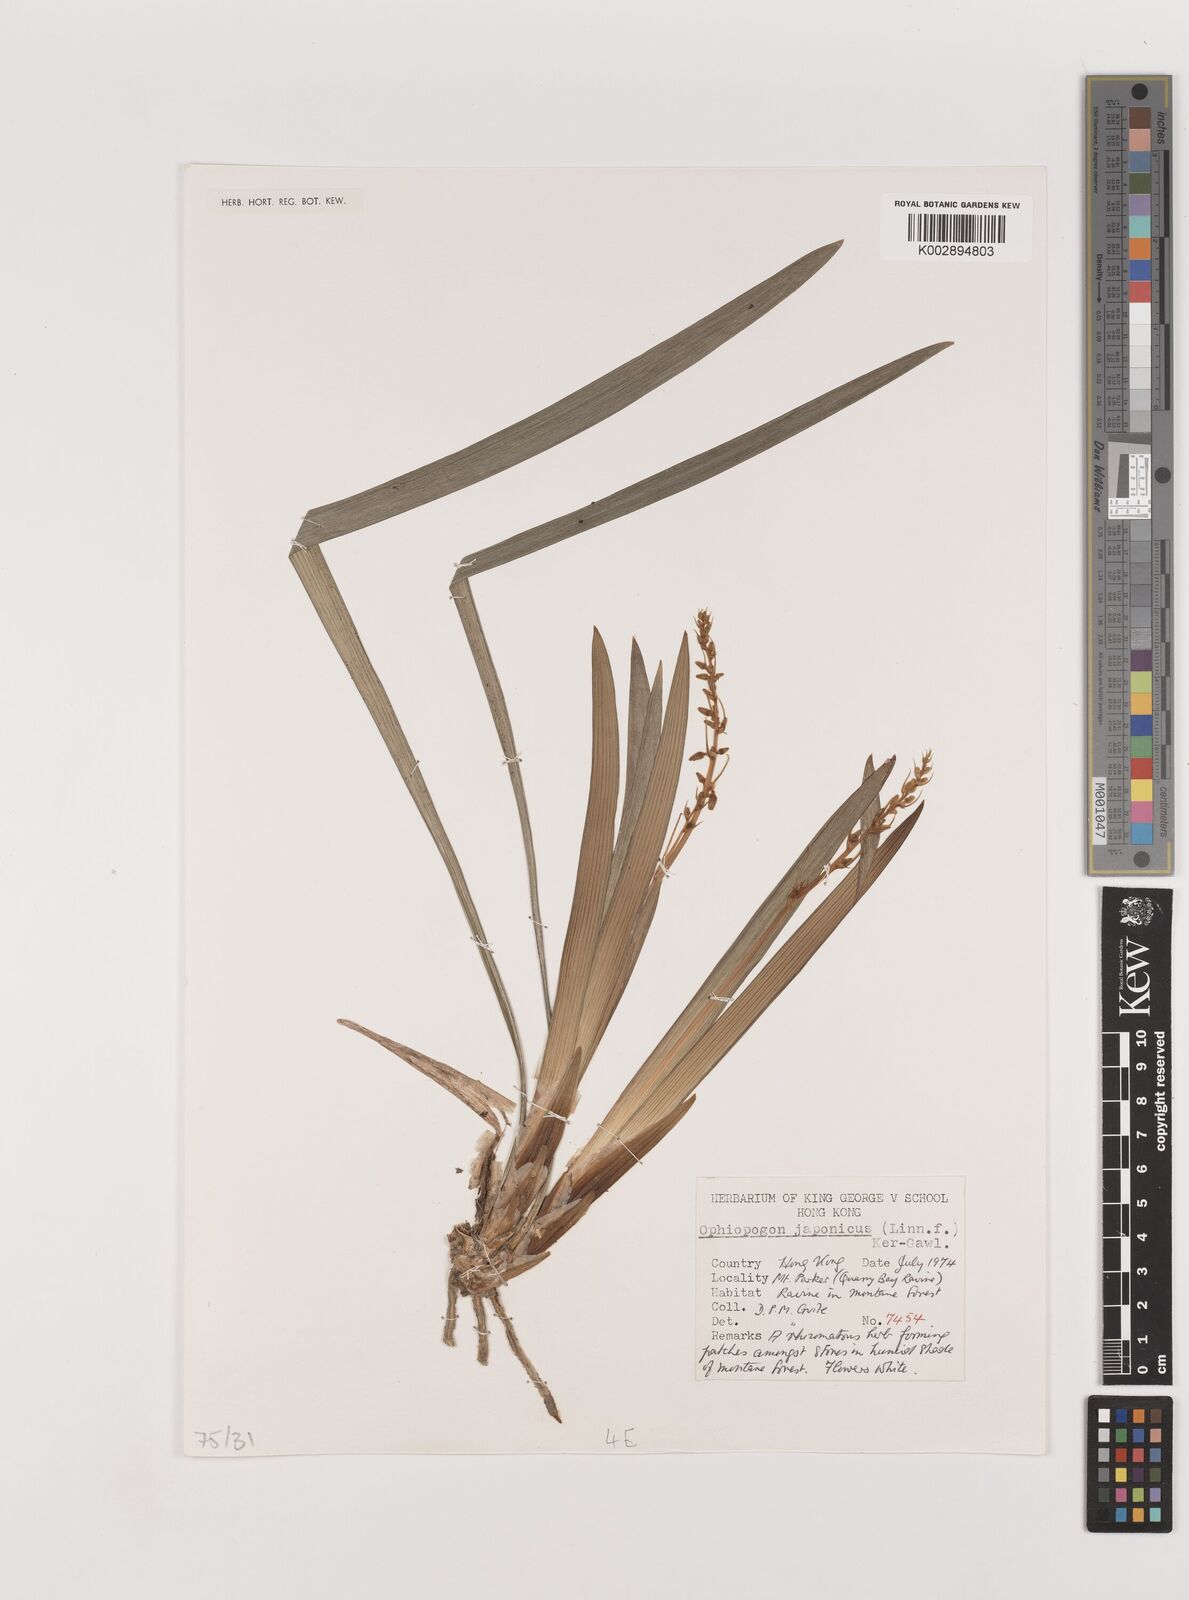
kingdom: Plantae
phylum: Tracheophyta
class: Liliopsida
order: Asparagales
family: Asparagaceae
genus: Ophiopogon
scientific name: Ophiopogon japonicus
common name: Dwarf lilyturf
